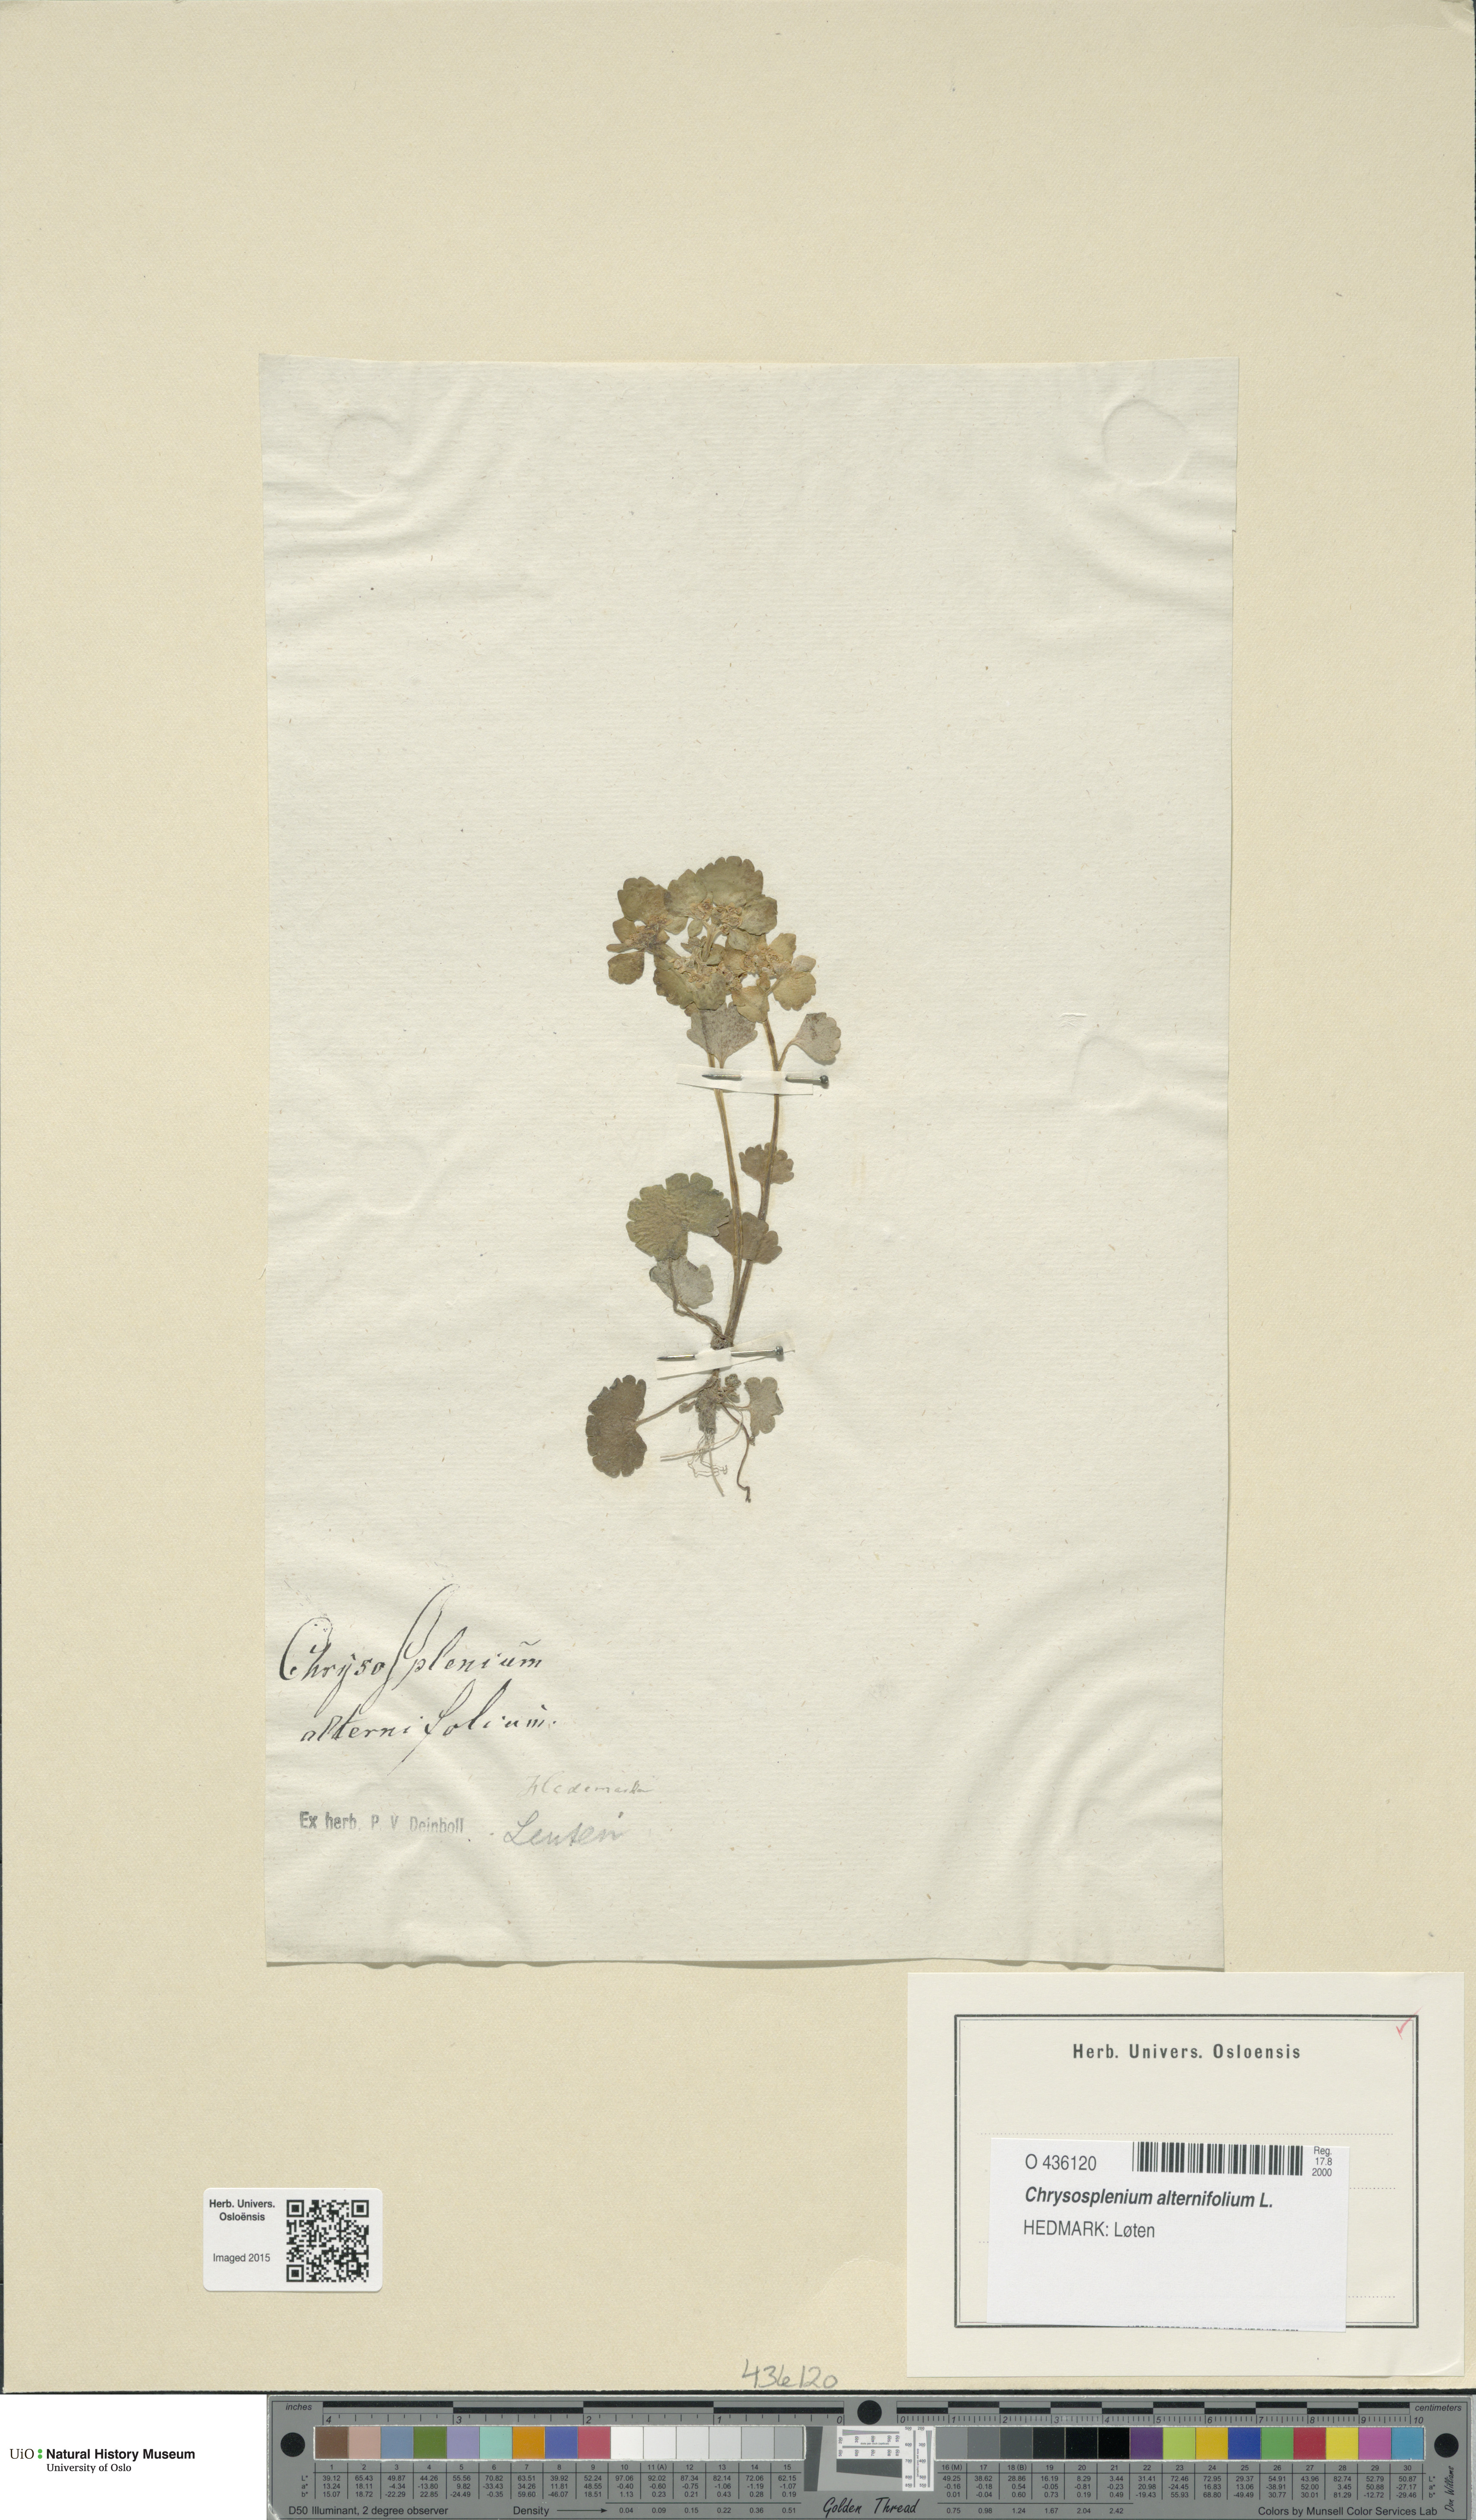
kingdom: Plantae
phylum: Tracheophyta
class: Magnoliopsida
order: Saxifragales
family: Saxifragaceae
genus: Chrysosplenium
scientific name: Chrysosplenium alternifolium
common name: Alternate-leaved golden-saxifrage
